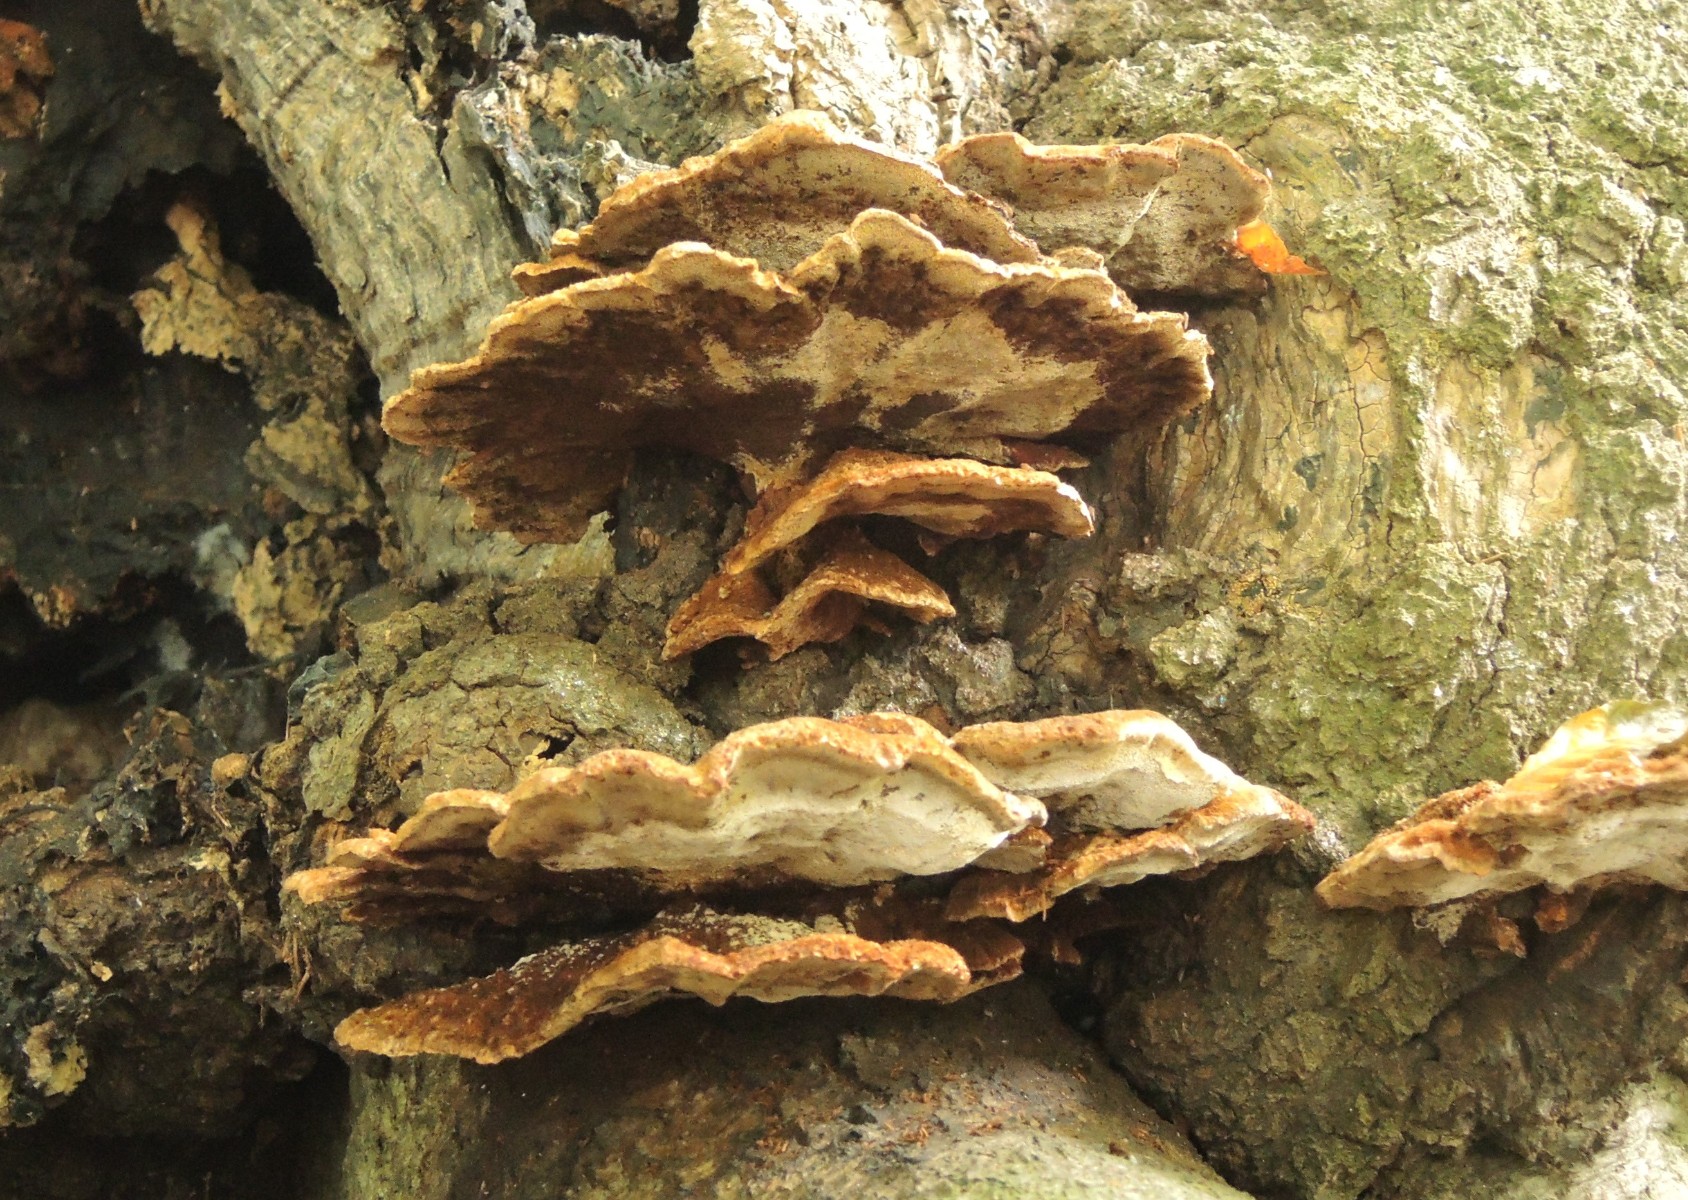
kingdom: Fungi
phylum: Basidiomycota
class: Agaricomycetes
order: Hymenochaetales
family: Hymenochaetaceae
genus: Inonotus
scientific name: Inonotus cuticularis
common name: kroghåret spejlporesvamp
